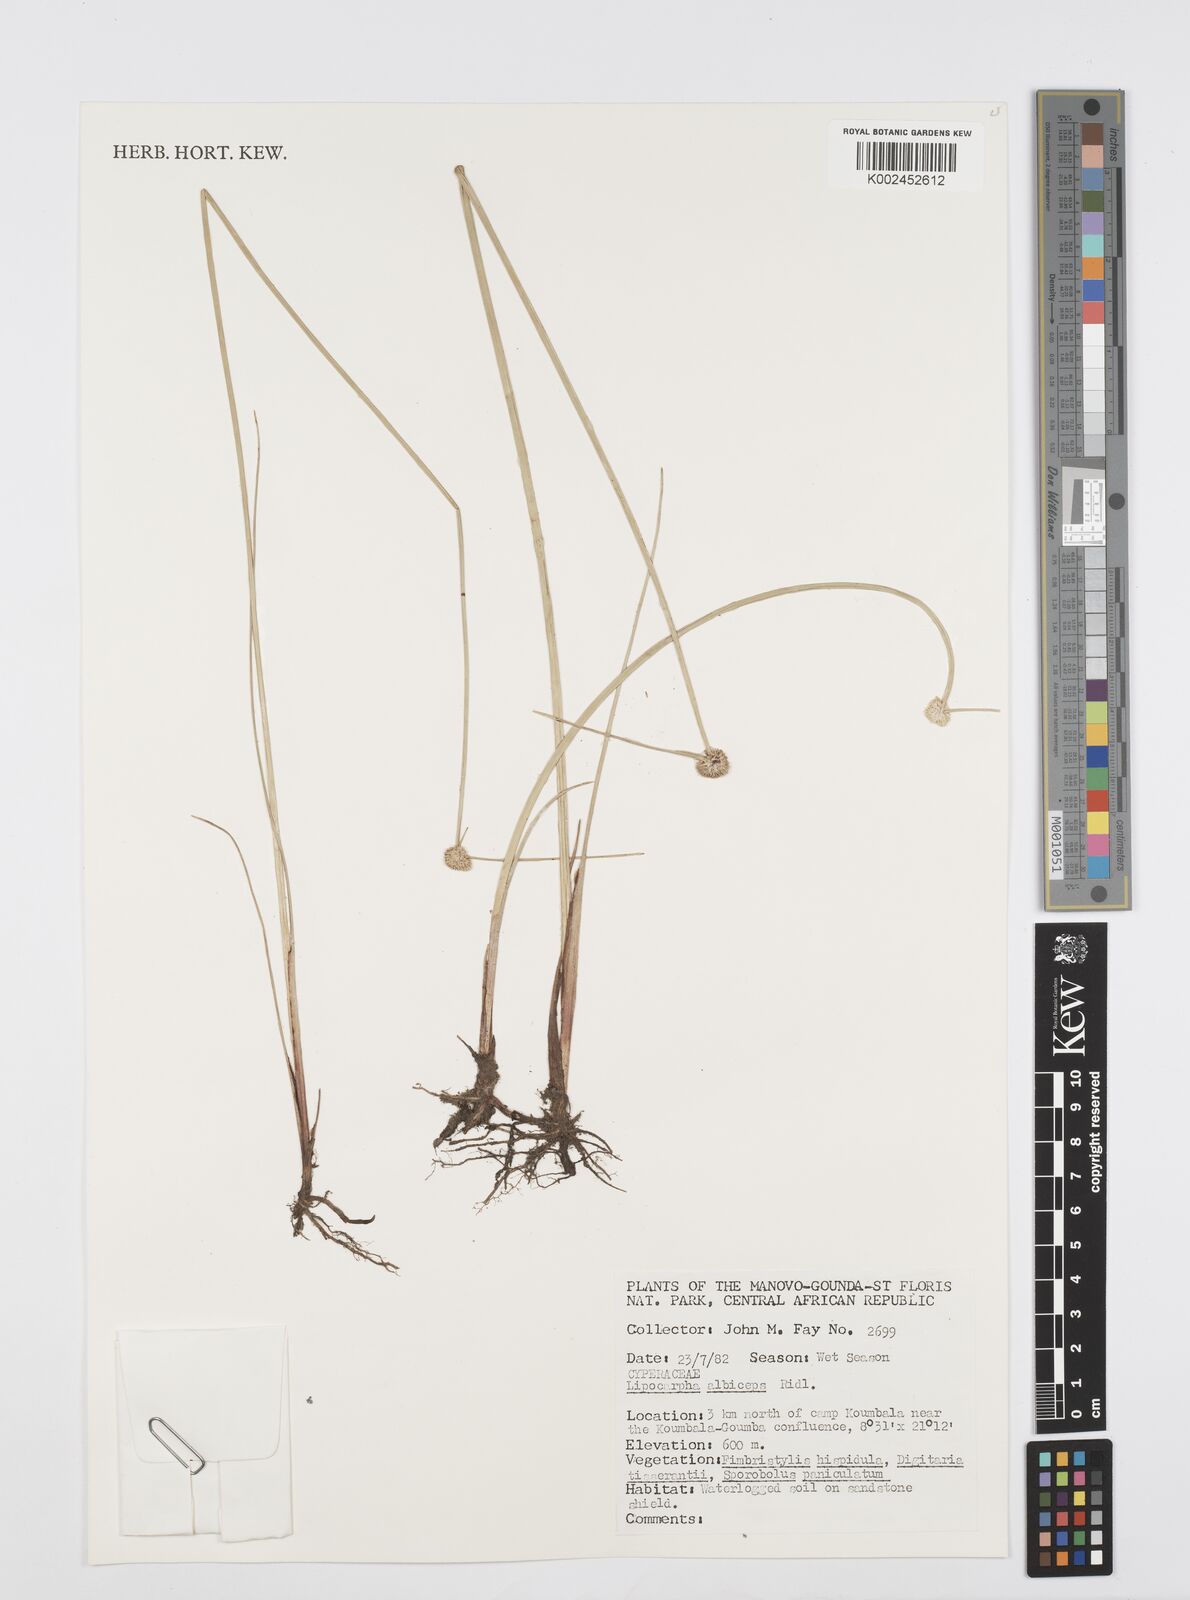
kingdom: Plantae
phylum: Tracheophyta
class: Liliopsida
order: Poales
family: Cyperaceae
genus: Cyperus
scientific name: Cyperus albiceps
